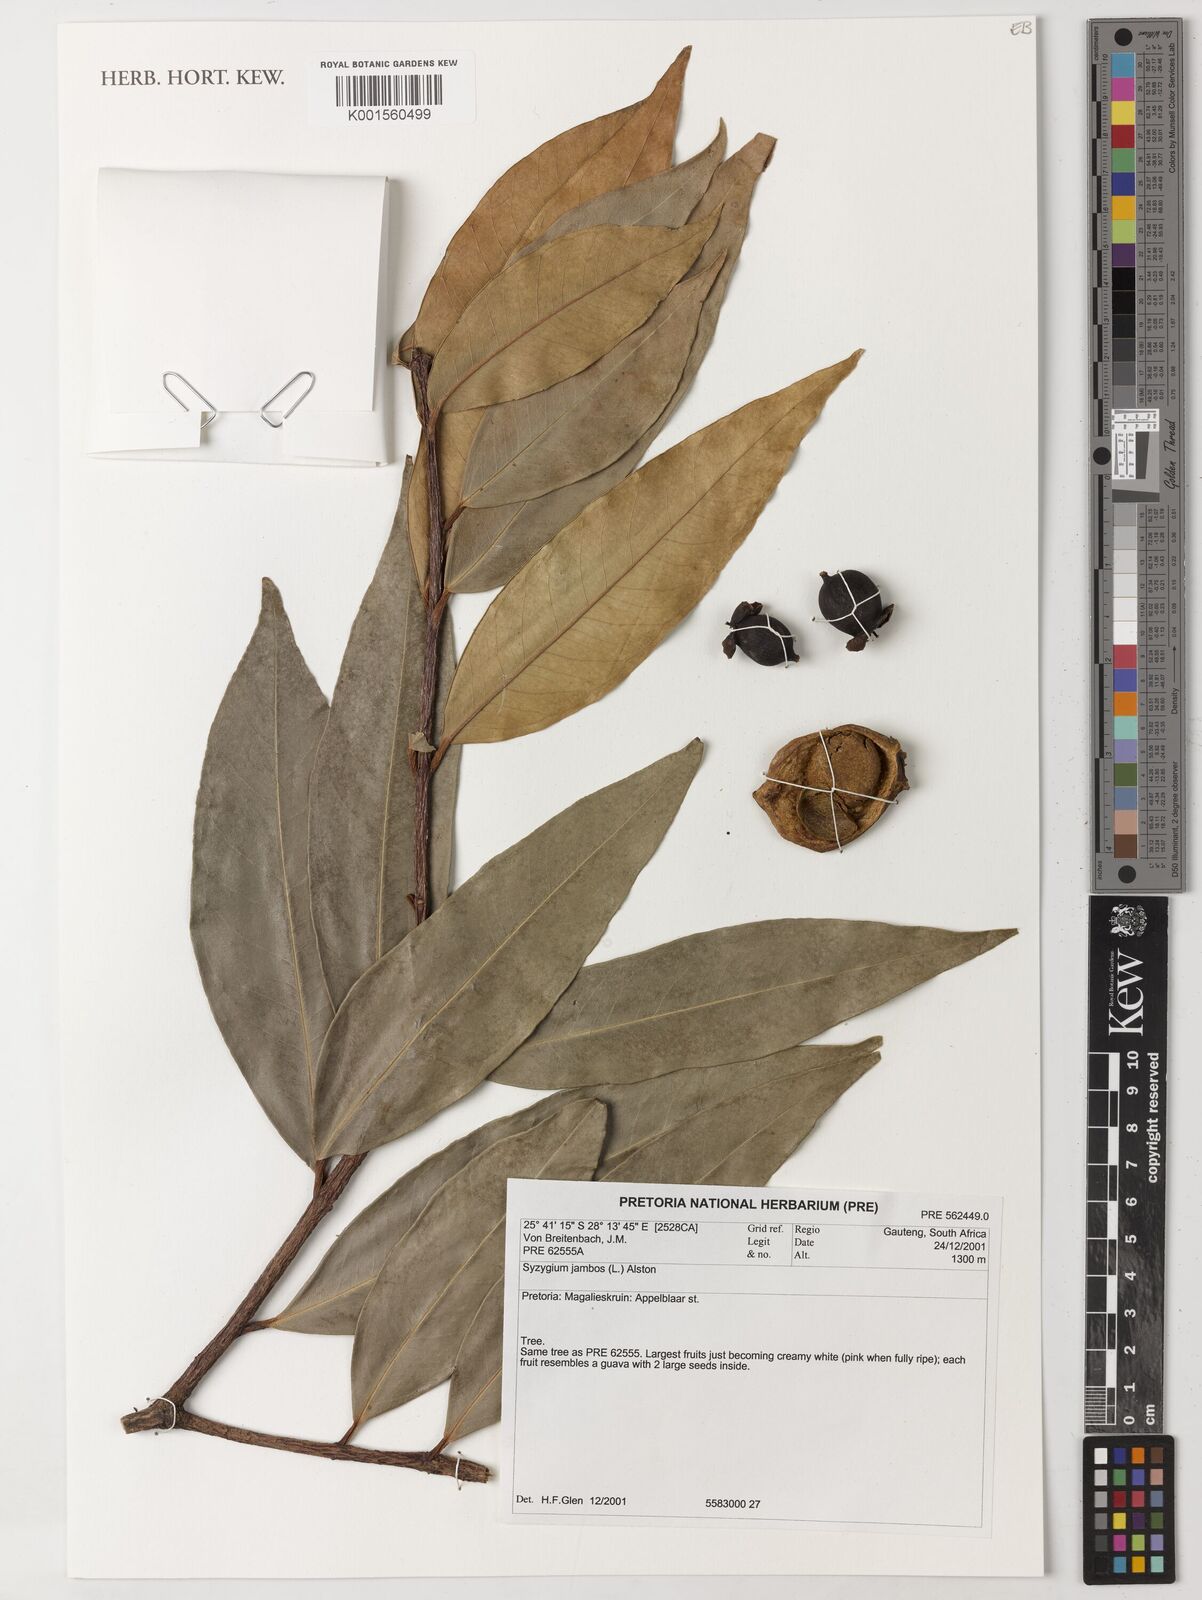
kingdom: Plantae
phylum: Tracheophyta
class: Magnoliopsida
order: Myrtales
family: Myrtaceae
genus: Syzygium
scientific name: Syzygium jambos
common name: Malabar plum
